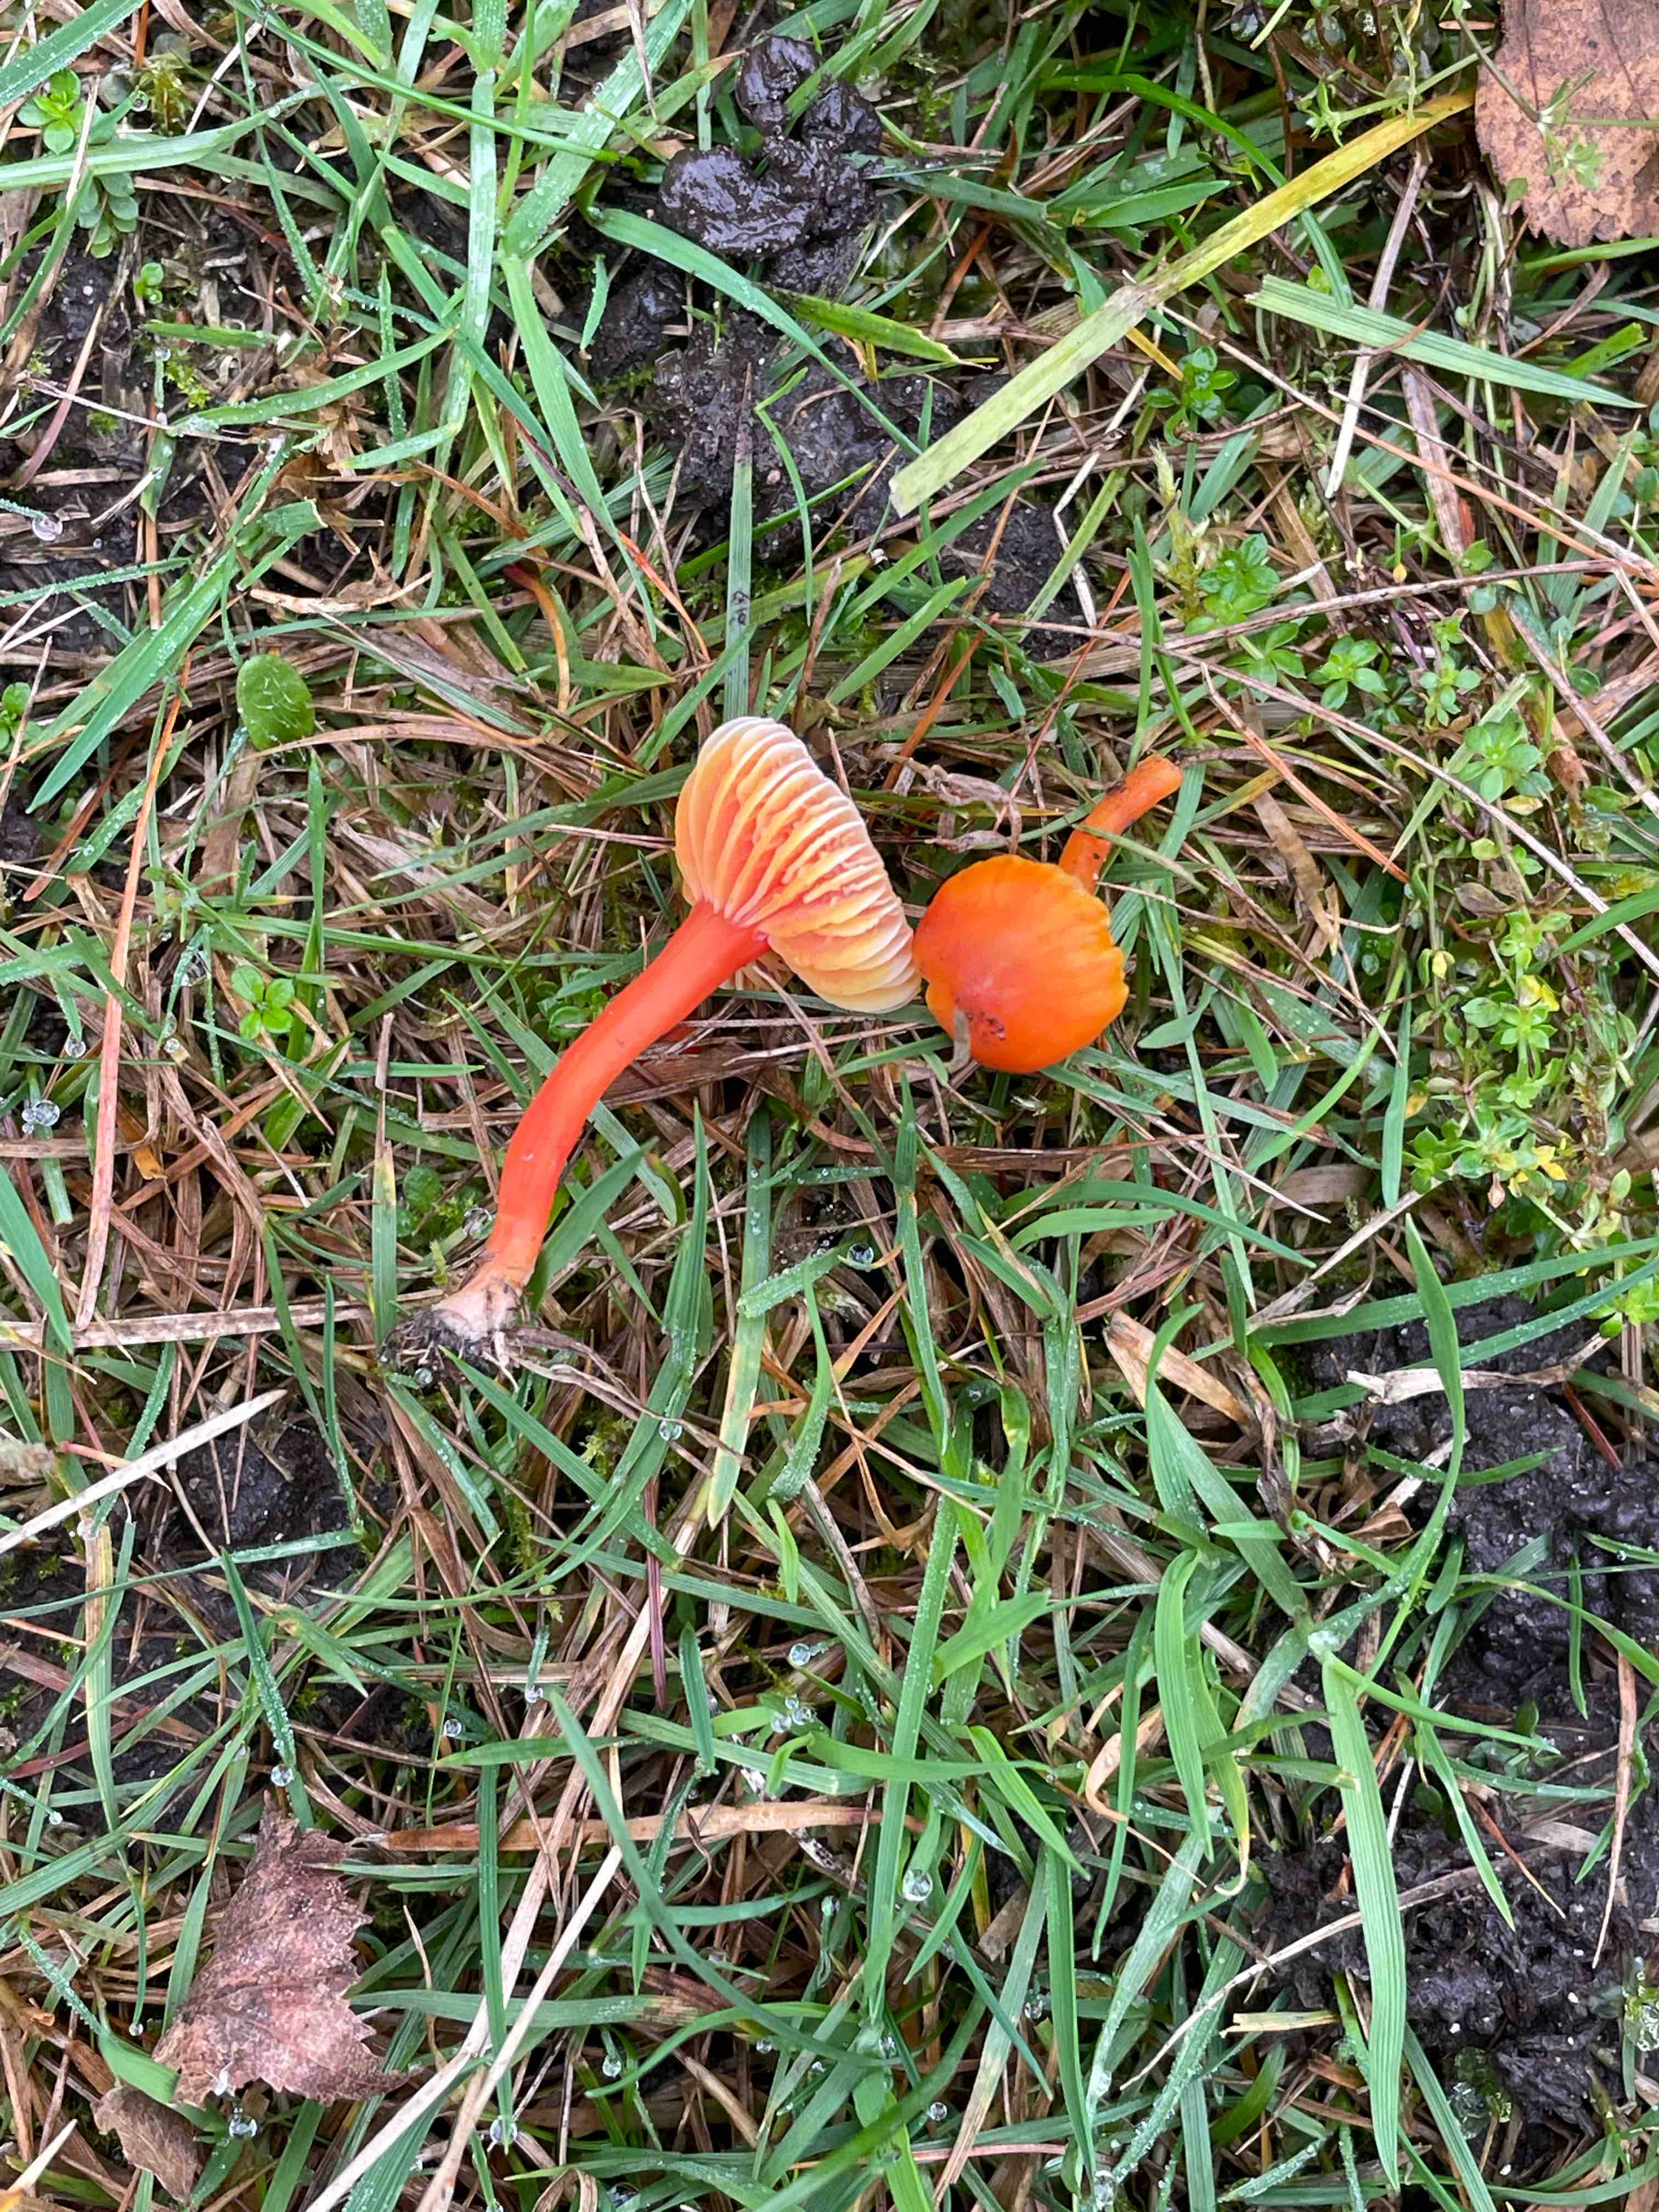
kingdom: Fungi
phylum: Basidiomycota
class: Agaricomycetes
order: Agaricales
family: Hygrophoraceae
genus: Hygrocybe
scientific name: Hygrocybe miniata
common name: mønje-vokshat
